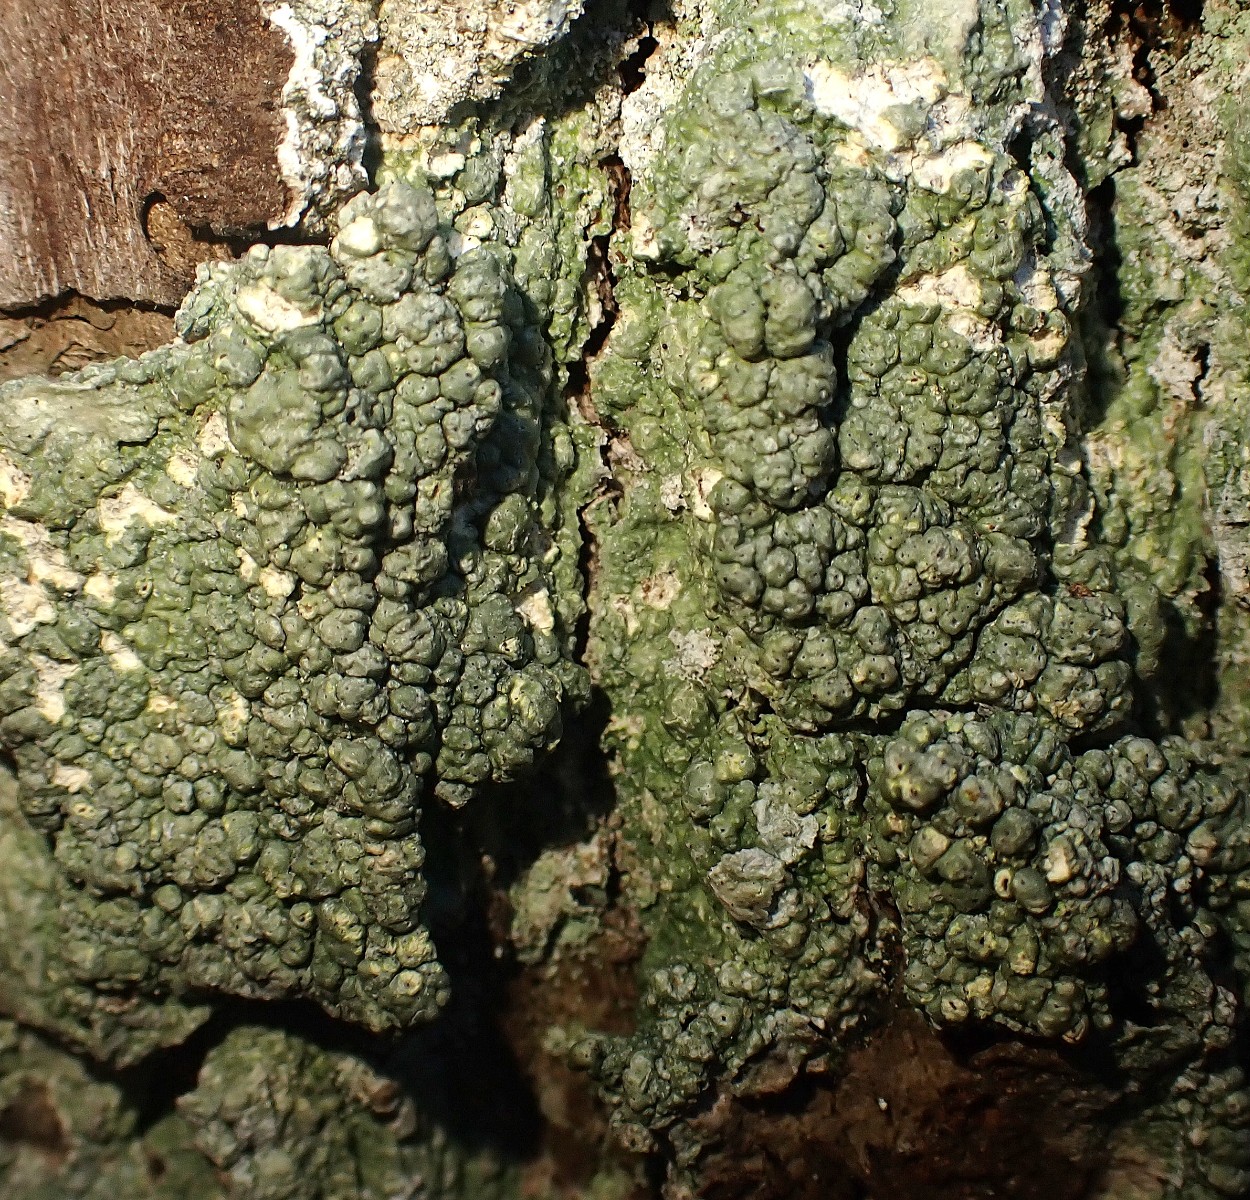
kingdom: Fungi
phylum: Ascomycota
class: Lecanoromycetes
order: Pertusariales
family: Pertusariaceae
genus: Pertusaria
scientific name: Pertusaria pertusa
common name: almindelig prikvortelav
